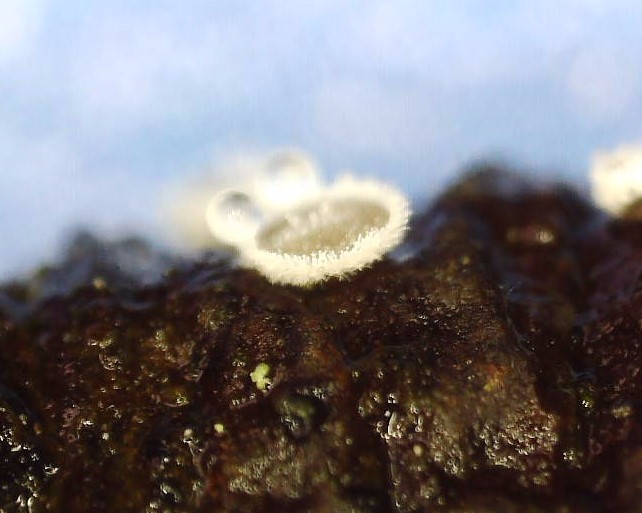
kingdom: Fungi
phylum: Basidiomycota
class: Agaricomycetes
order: Agaricales
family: Niaceae
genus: Lachnella
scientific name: Lachnella alboviolascens
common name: grå frynserede
